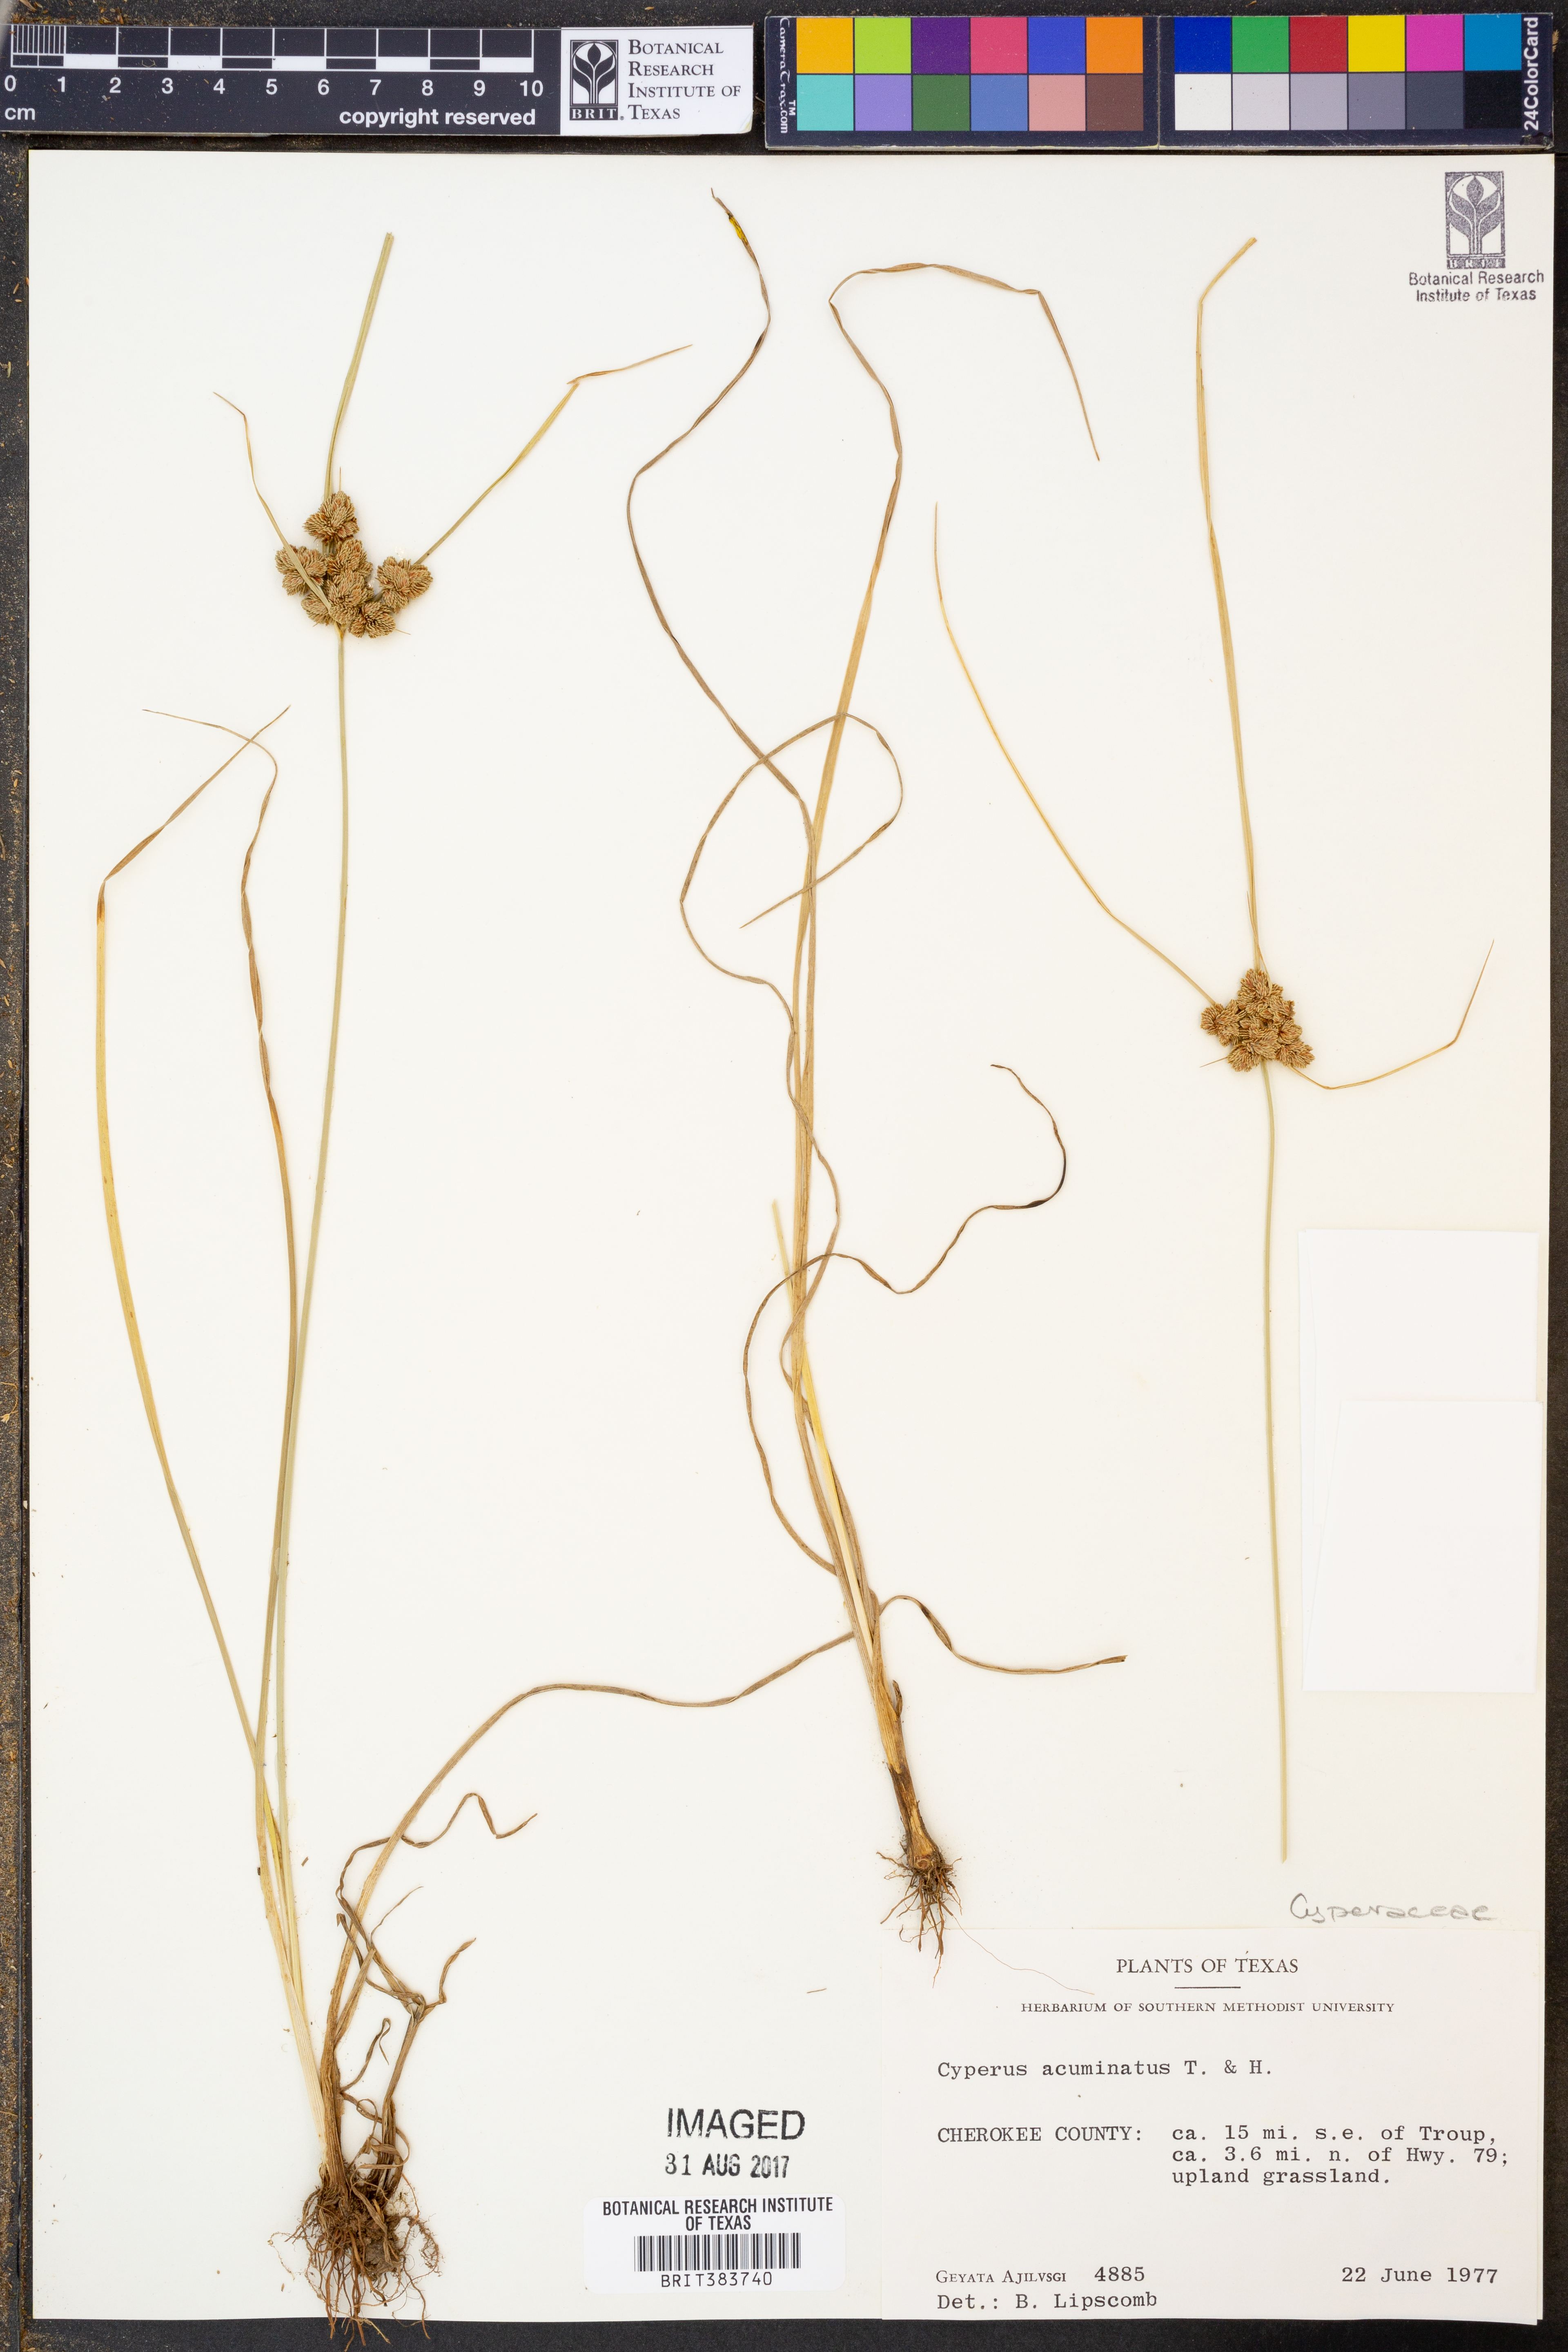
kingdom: Plantae
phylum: Tracheophyta
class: Liliopsida
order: Poales
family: Cyperaceae
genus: Cyperus
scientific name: Cyperus acuminatus
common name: Short-pointed cyperus
